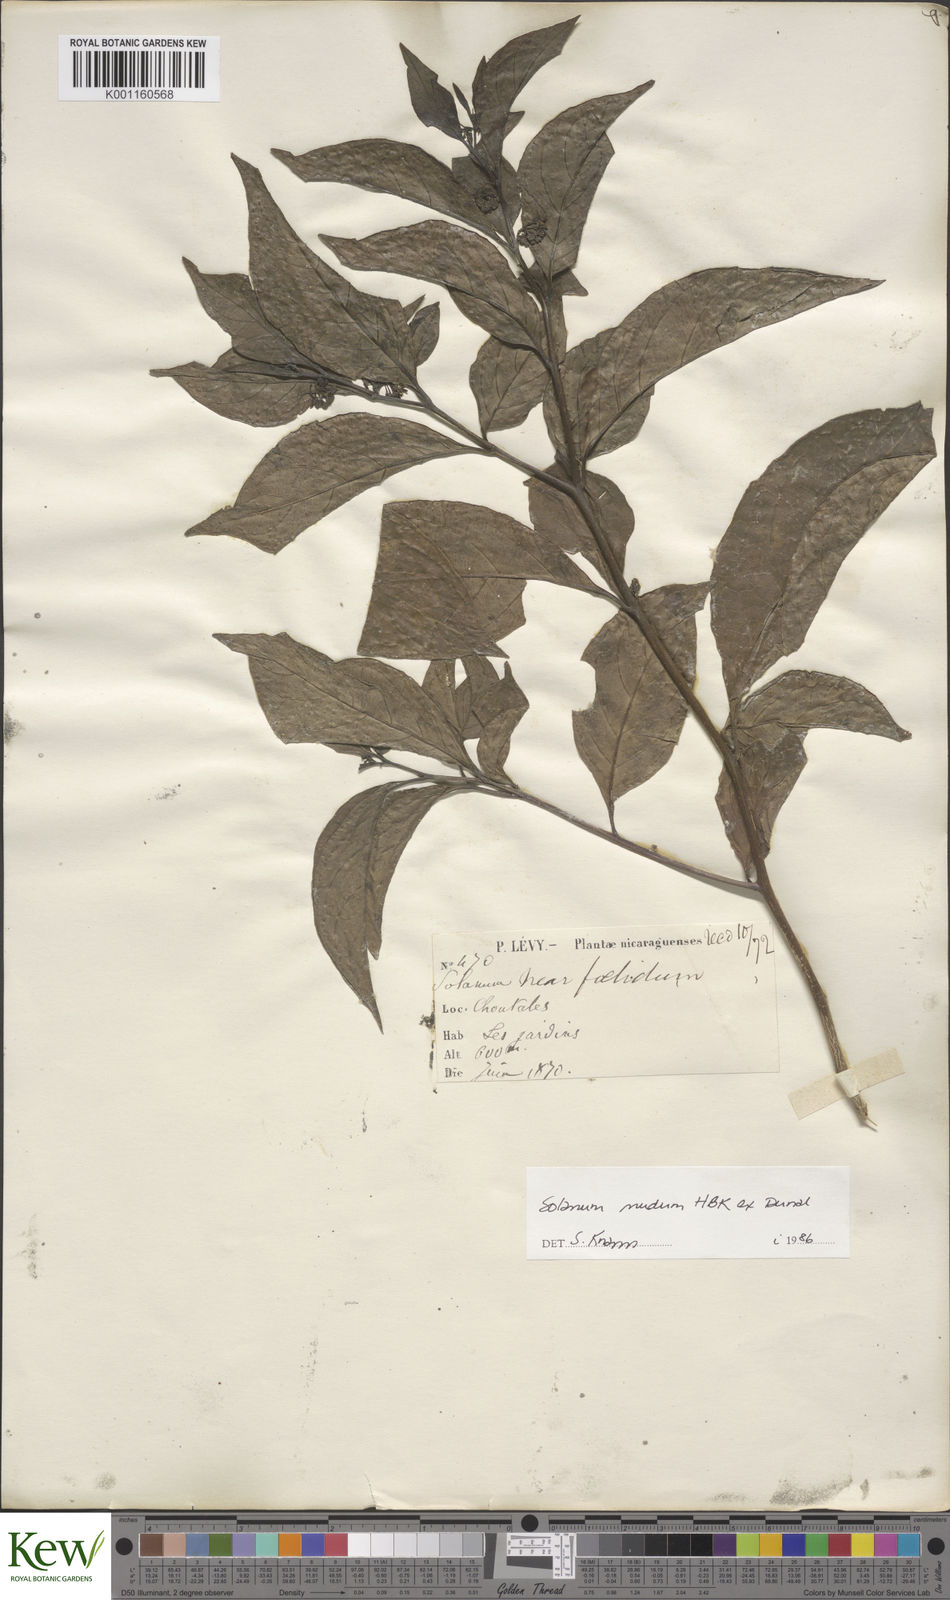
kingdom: Plantae
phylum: Tracheophyta
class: Magnoliopsida
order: Solanales
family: Solanaceae
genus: Solanum
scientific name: Solanum nudum
